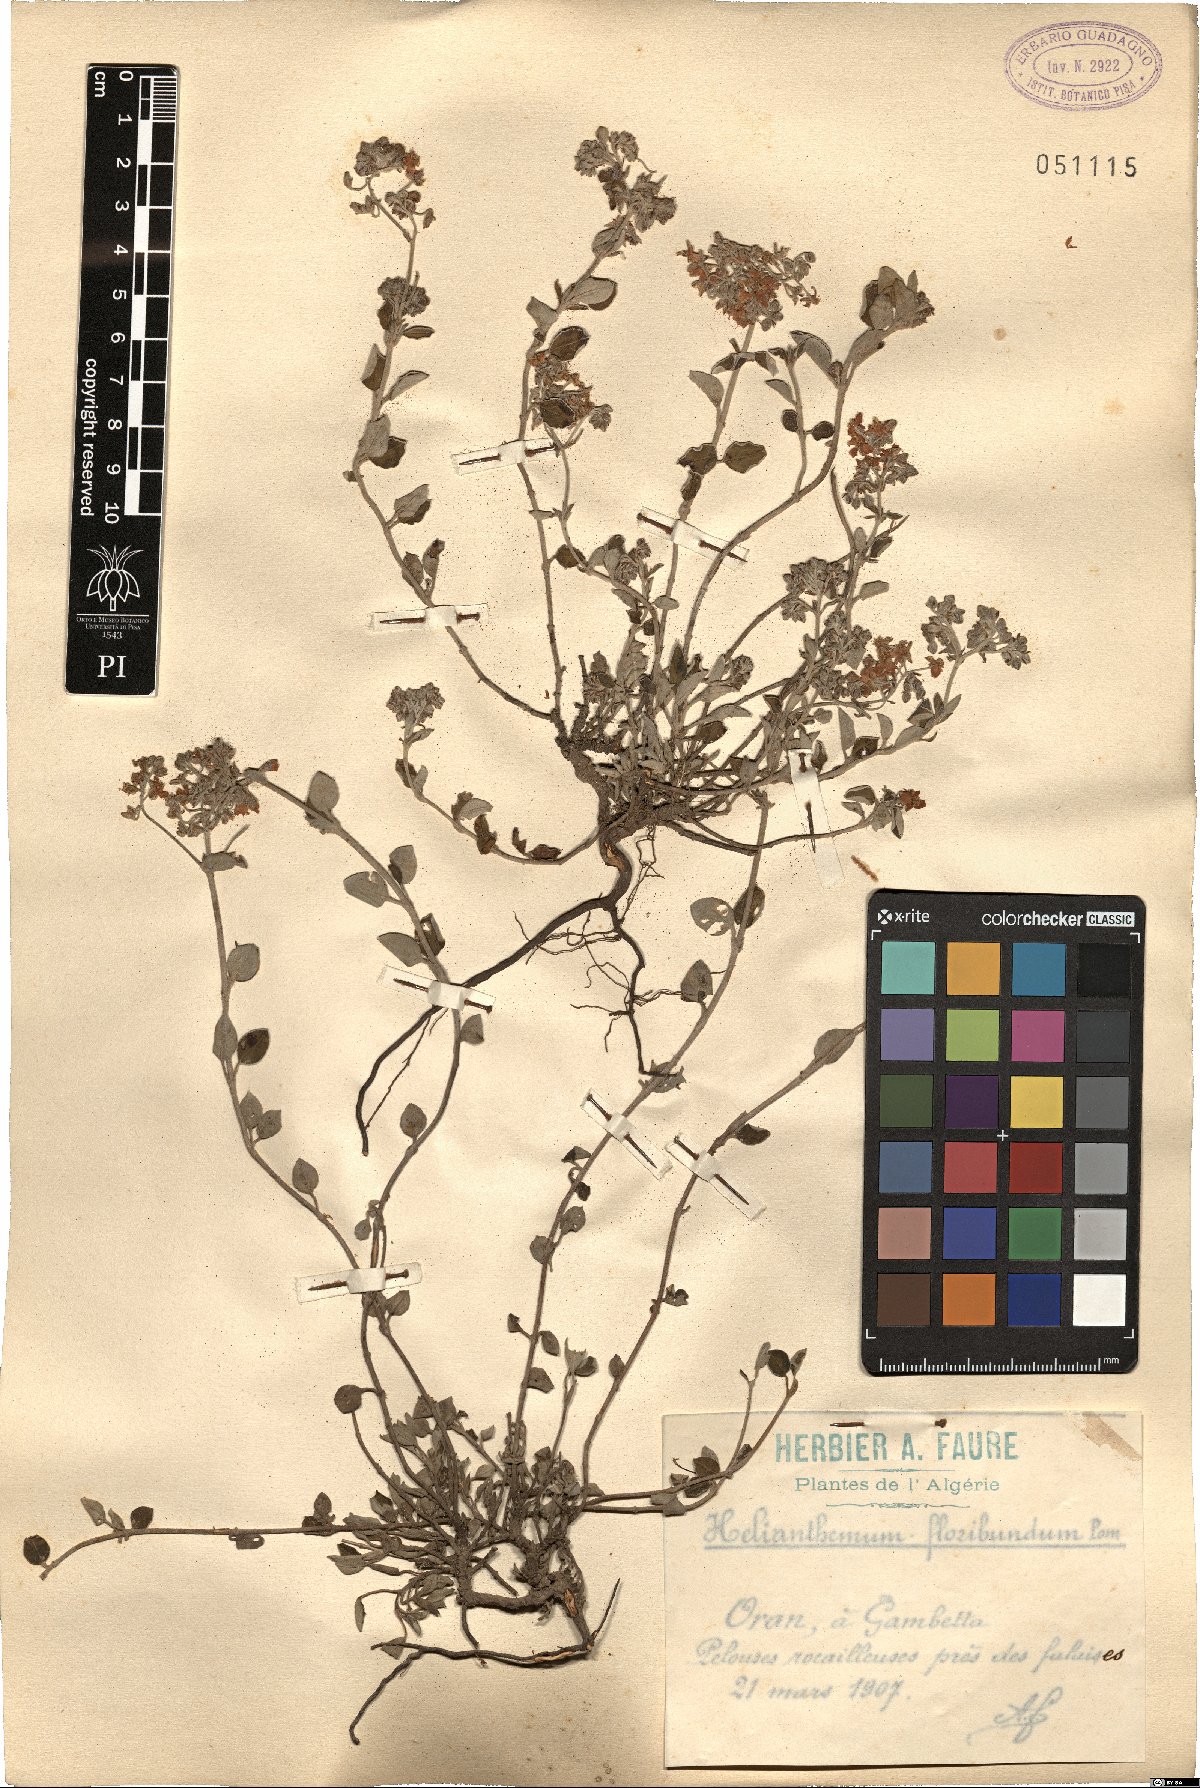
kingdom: Plantae
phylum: Tracheophyta
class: Magnoliopsida
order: Malvales
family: Cistaceae
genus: Helianthemum
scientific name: Helianthemum cinereum
